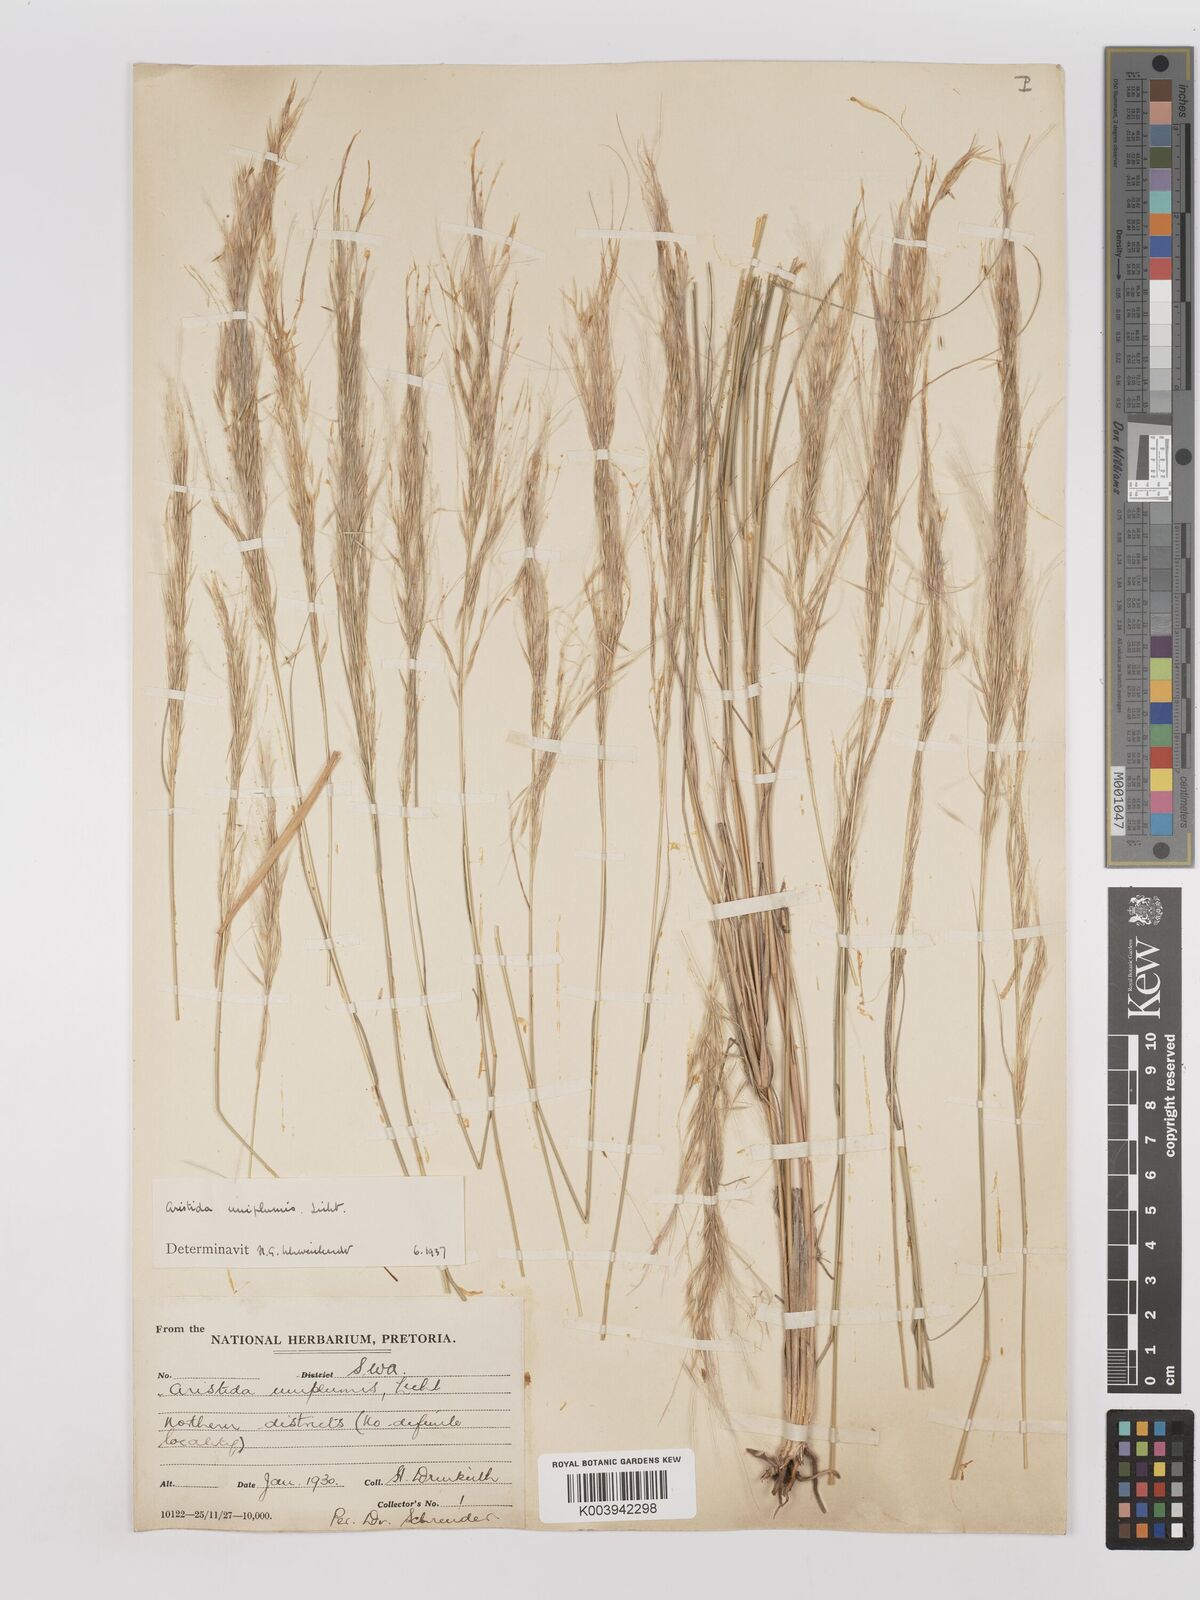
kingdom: Plantae
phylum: Tracheophyta
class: Liliopsida
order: Poales
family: Poaceae
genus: Stipagrostis
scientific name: Stipagrostis uniplumis
